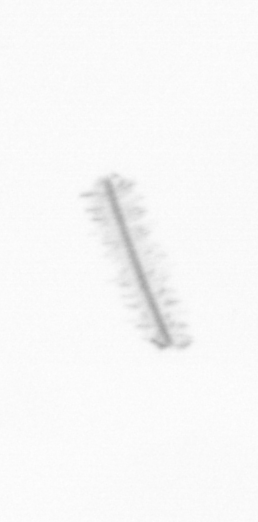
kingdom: Chromista
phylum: Ochrophyta
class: Bacillariophyceae
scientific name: Bacillariophyceae
